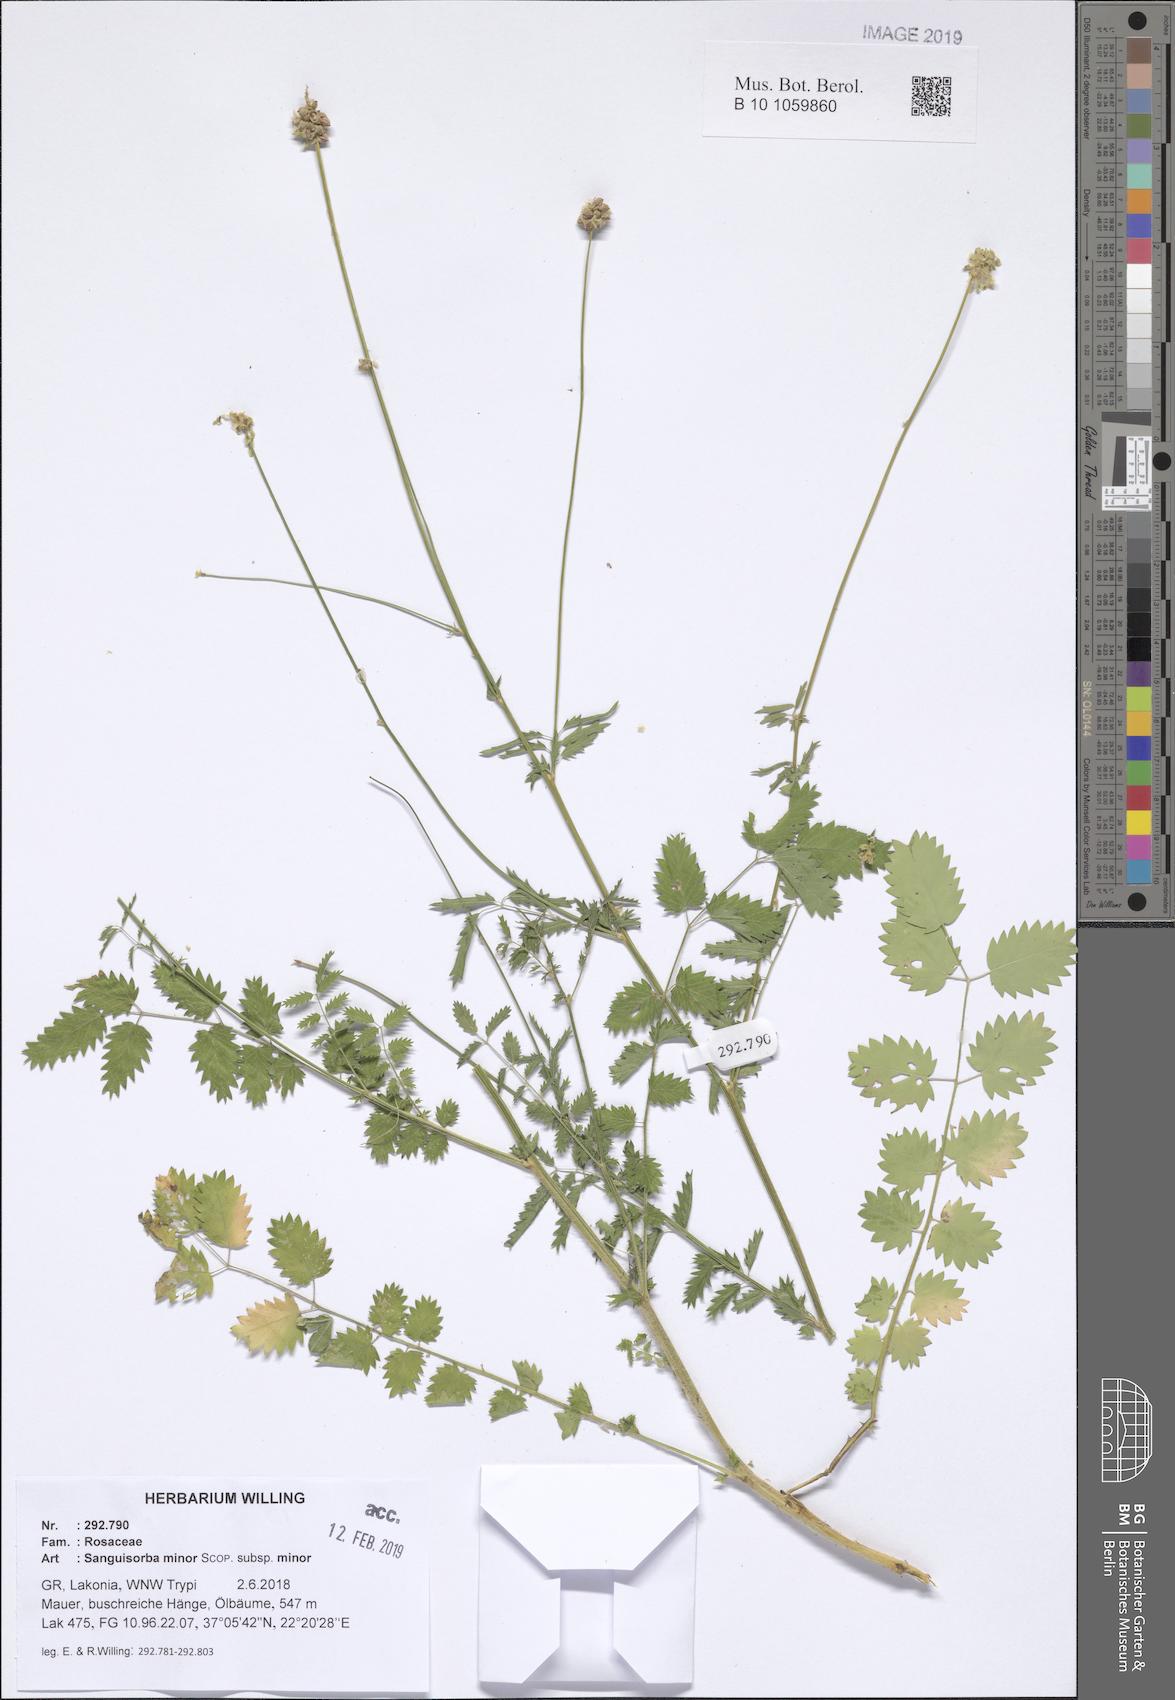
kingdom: Plantae
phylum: Tracheophyta
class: Magnoliopsida
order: Rosales
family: Rosaceae
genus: Poterium
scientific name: Poterium sanguisorba
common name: Salad burnet
